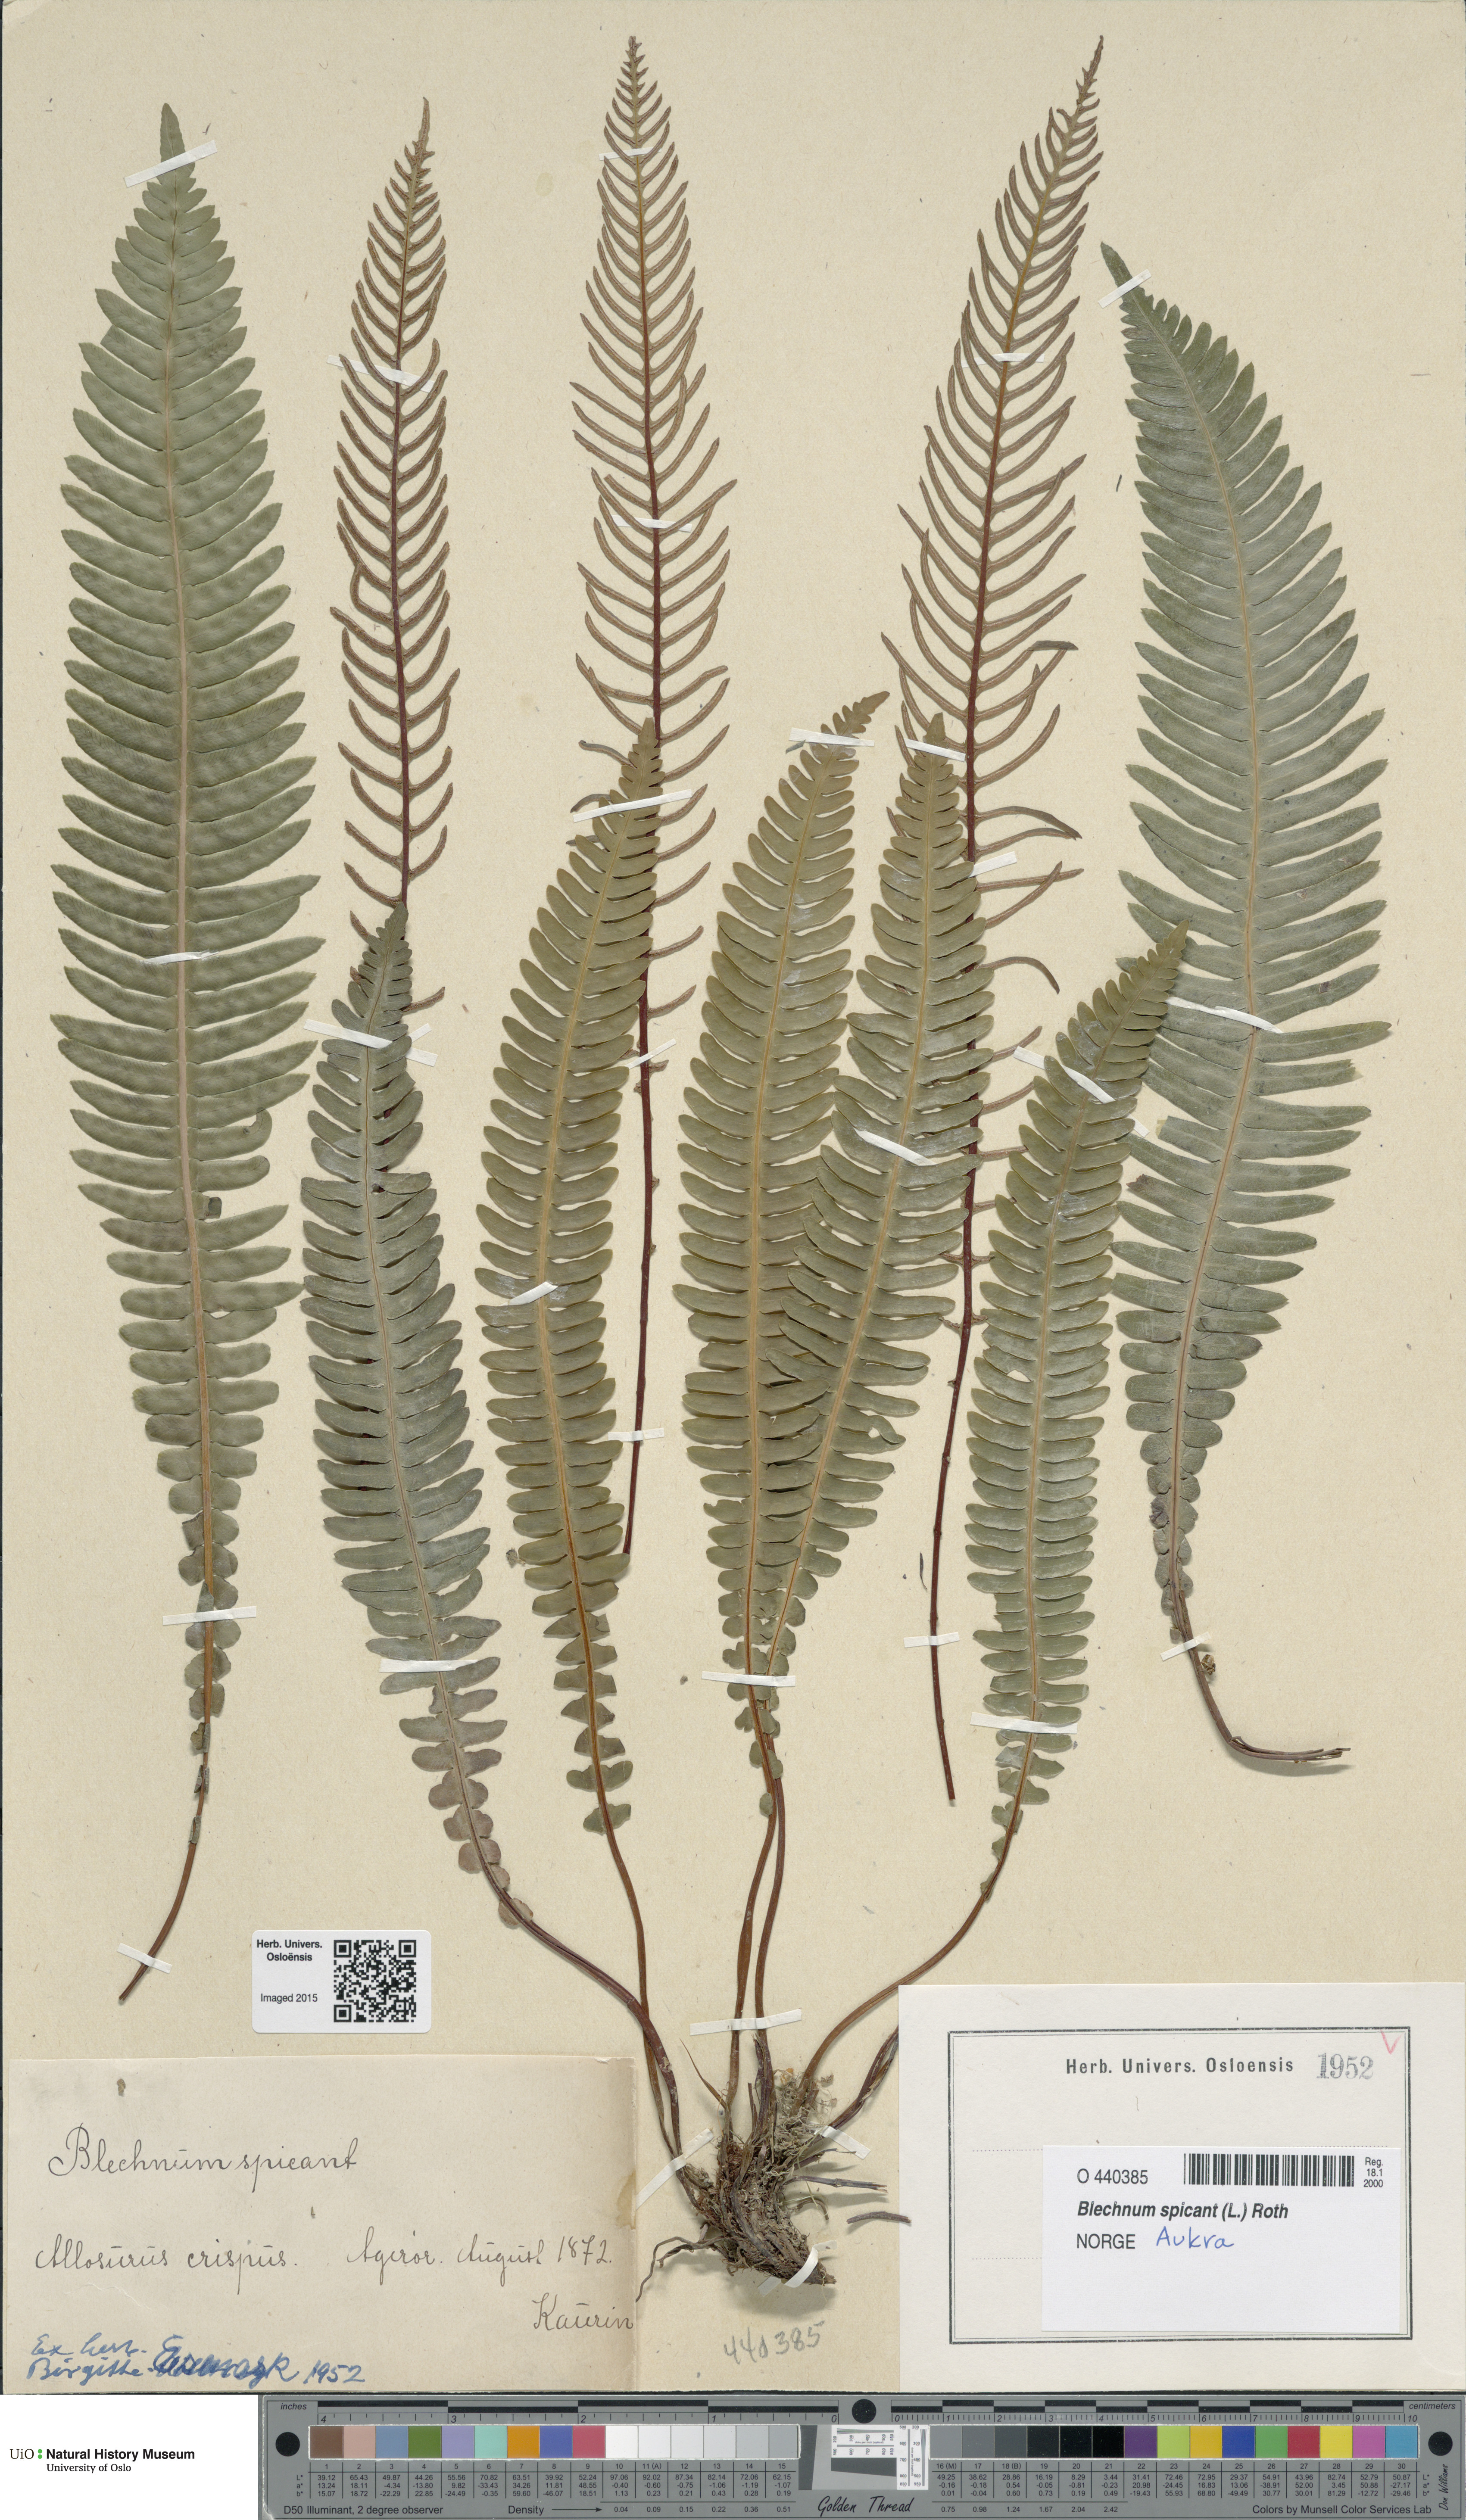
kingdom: Plantae
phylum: Tracheophyta
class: Polypodiopsida
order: Polypodiales
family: Blechnaceae
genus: Struthiopteris
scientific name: Struthiopteris spicant
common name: Deer fern
